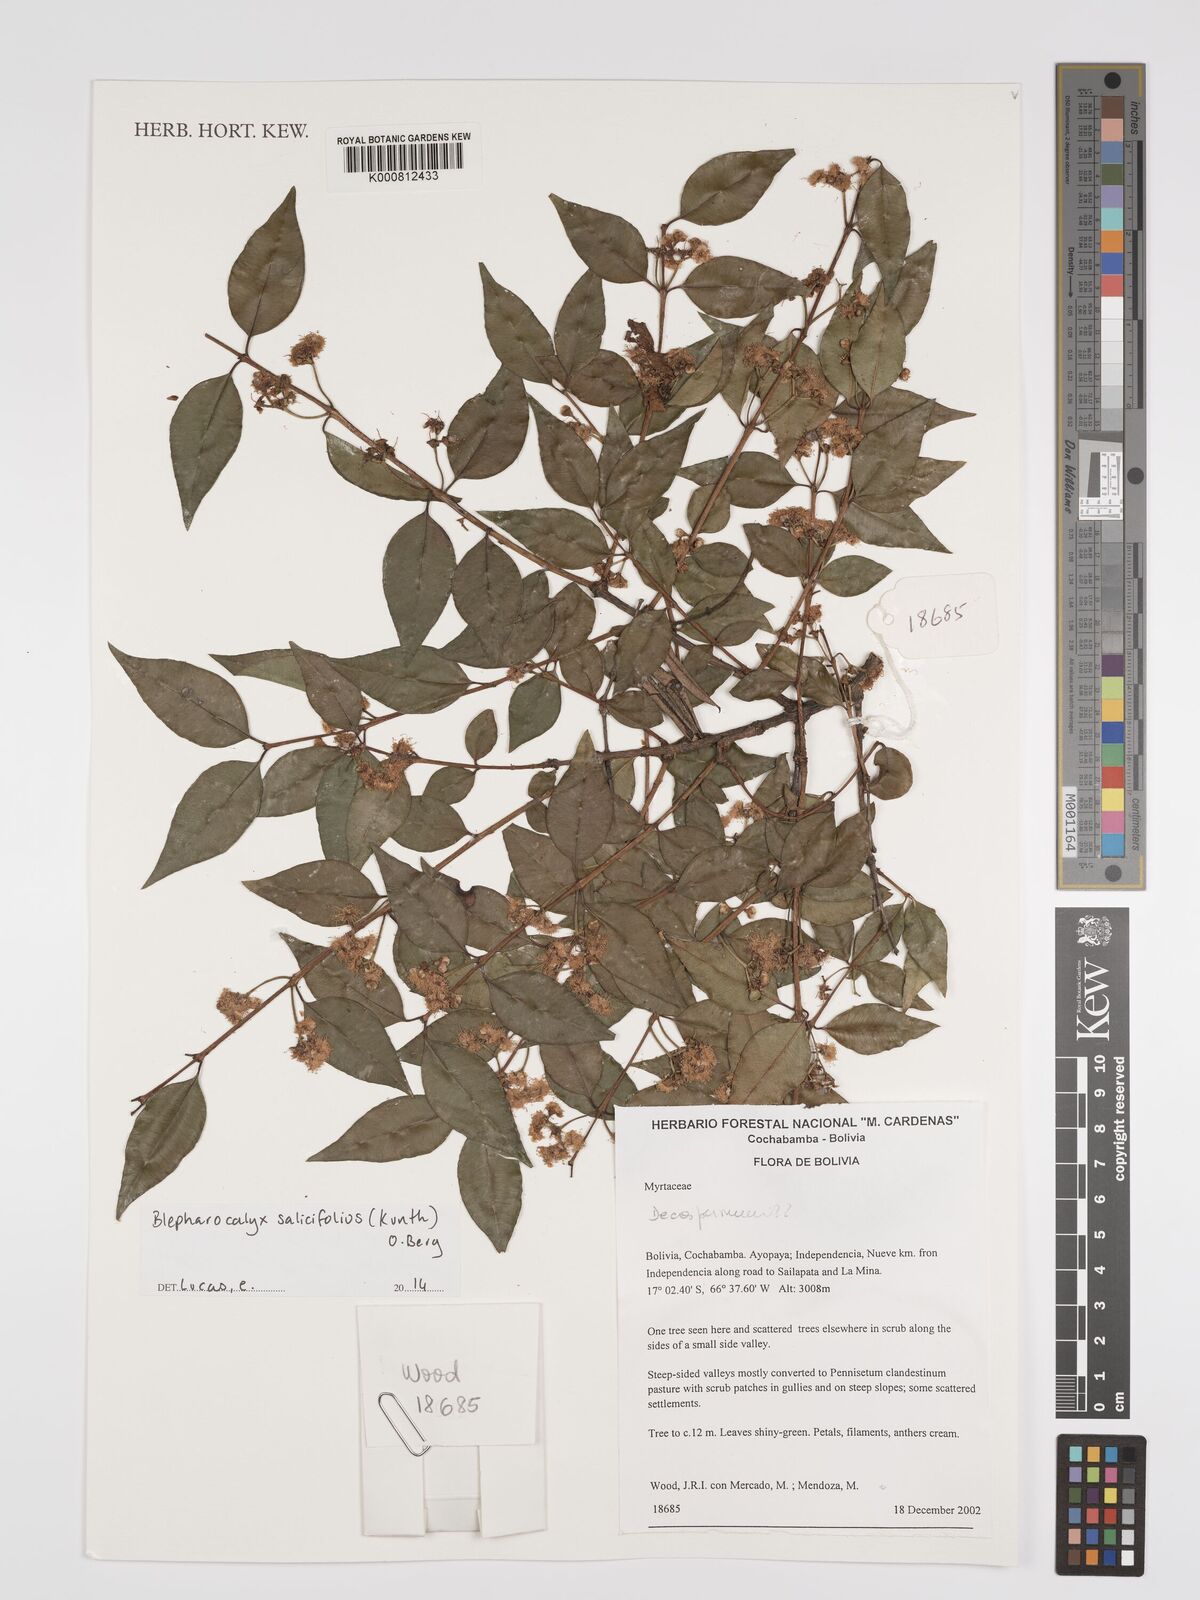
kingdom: Plantae
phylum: Tracheophyta
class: Magnoliopsida
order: Myrtales
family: Myrtaceae
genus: Blepharocalyx
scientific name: Blepharocalyx salicifolius
